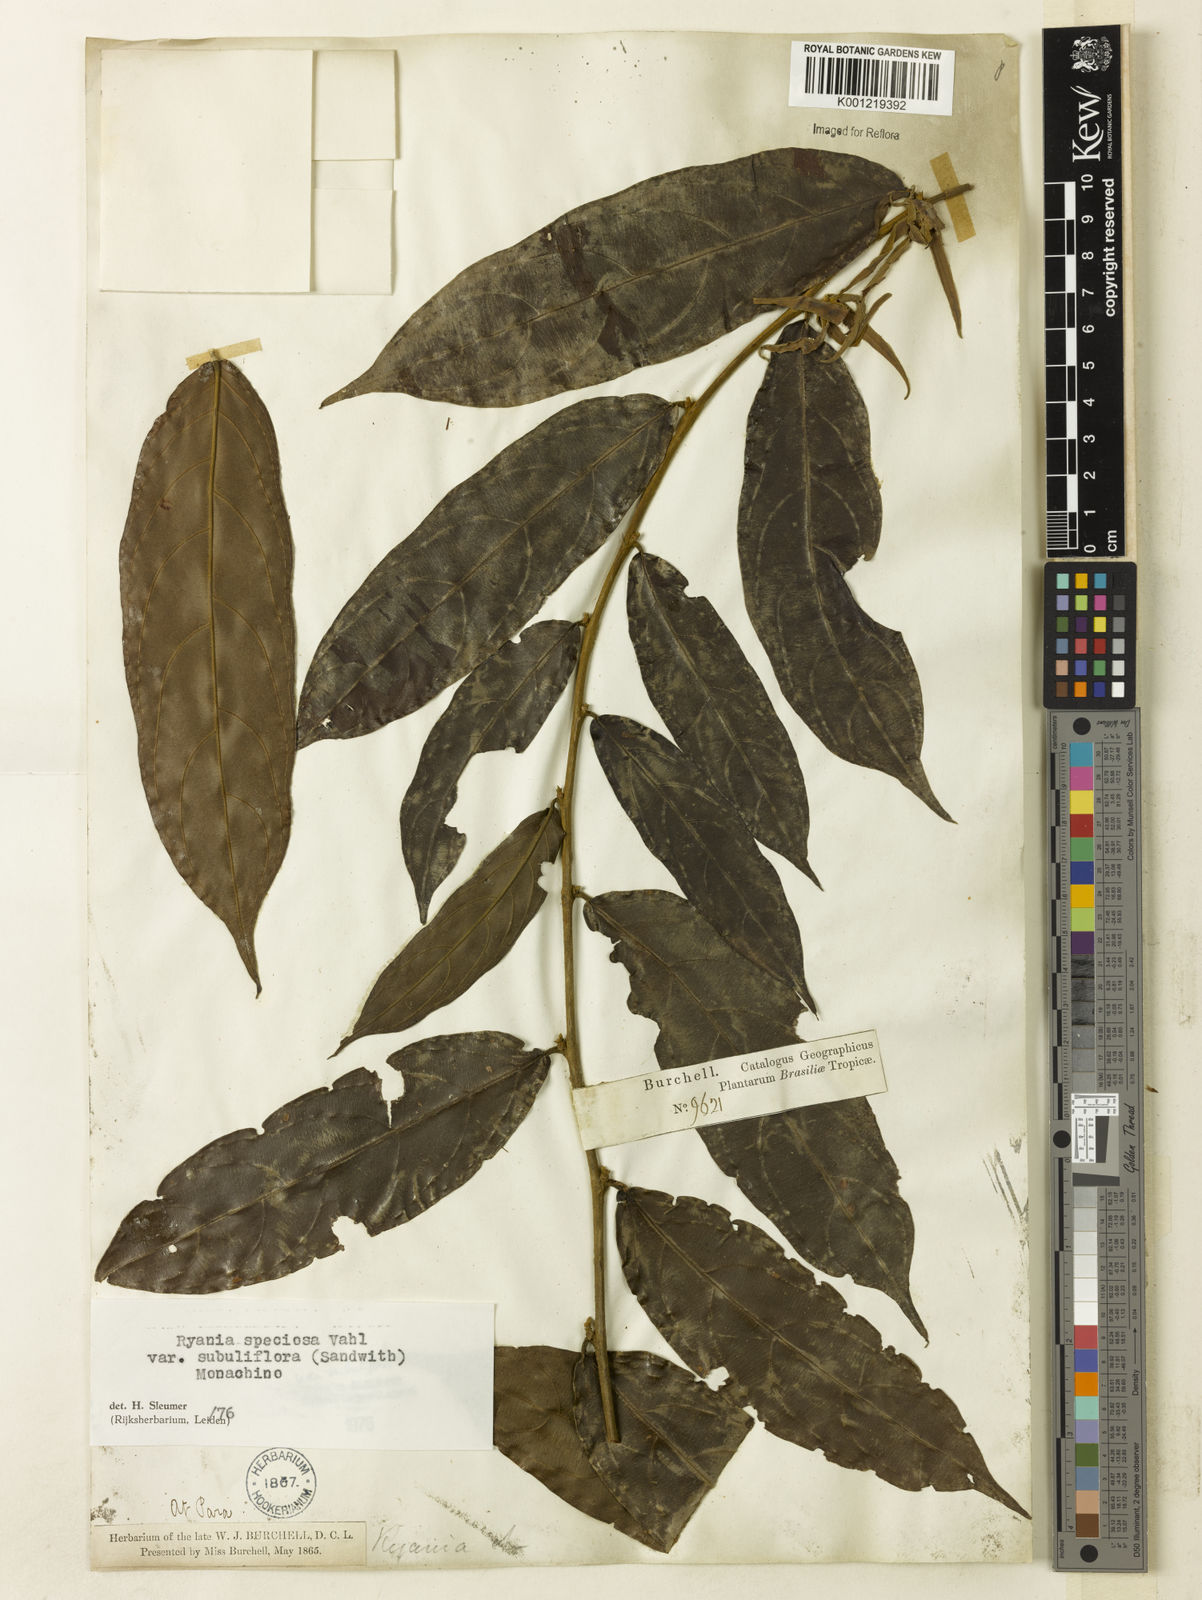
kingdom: Plantae
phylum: Tracheophyta
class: Magnoliopsida
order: Malpighiales
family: Salicaceae
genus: Ryania
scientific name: Ryania speciosa
